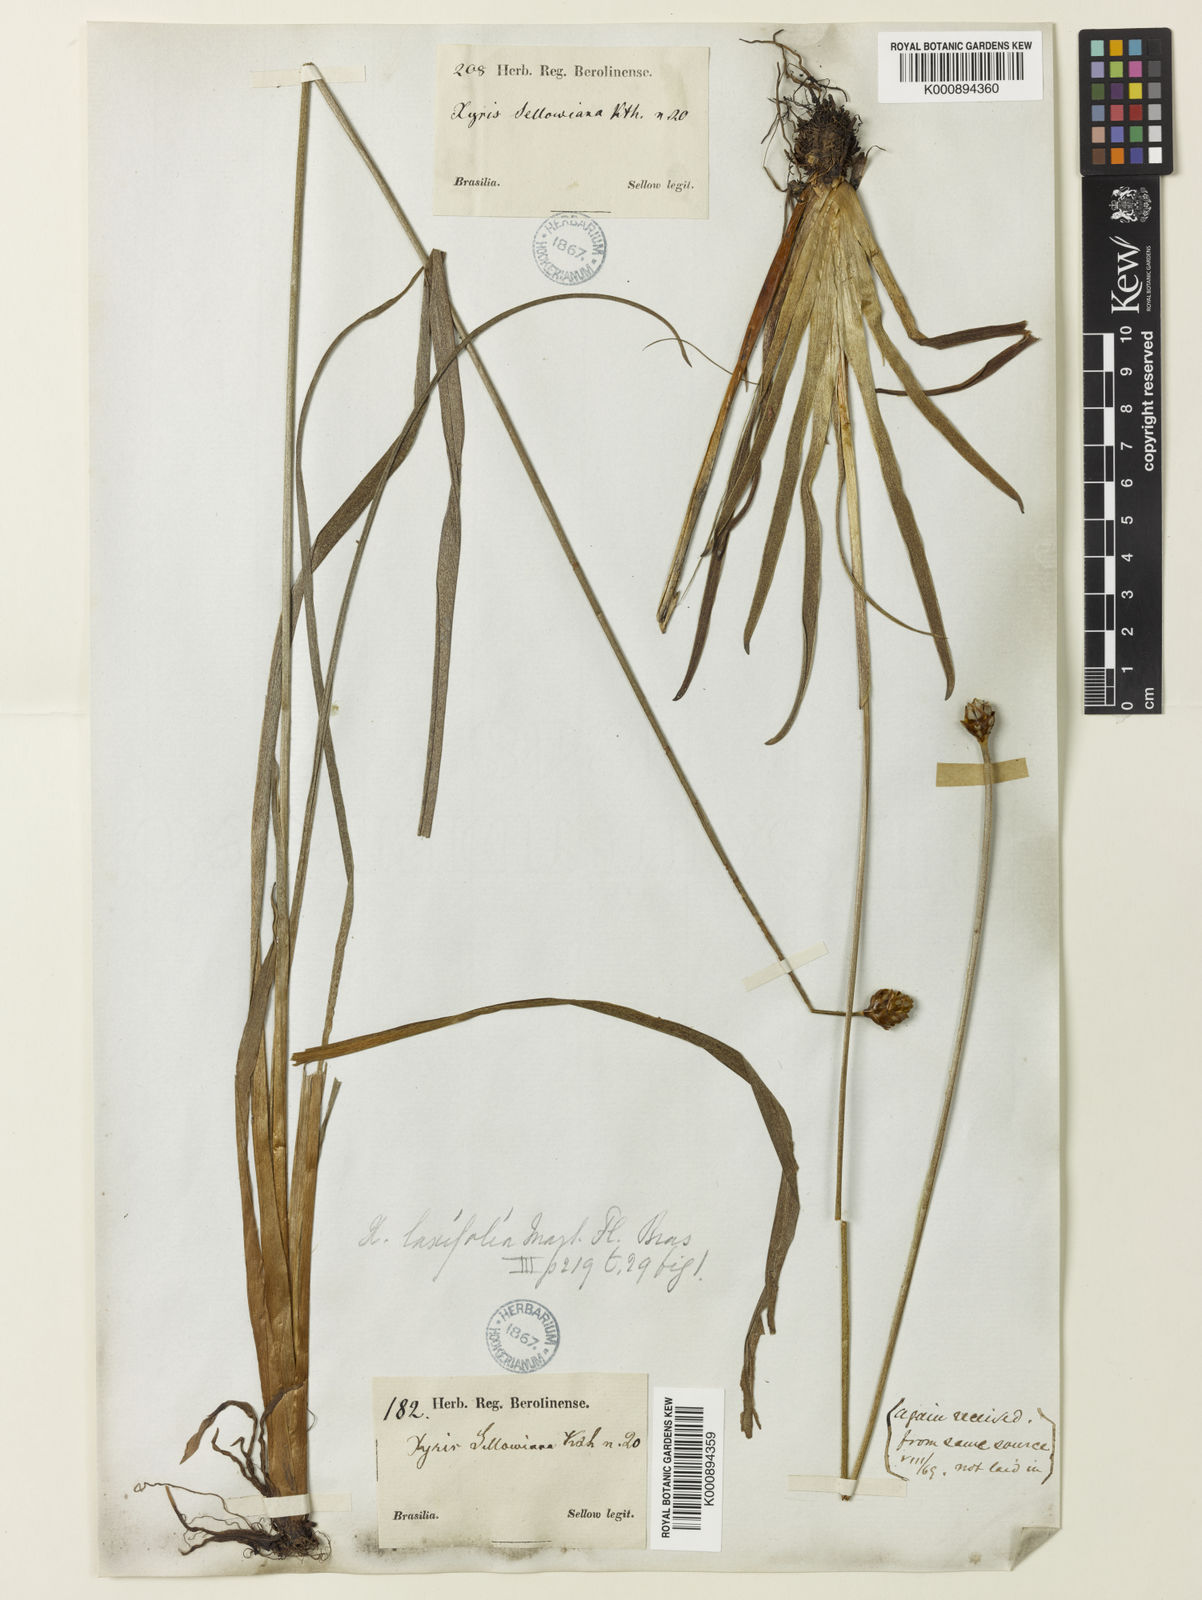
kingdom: Plantae
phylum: Tracheophyta
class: Liliopsida
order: Poales
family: Xyridaceae
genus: Xyris
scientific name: Xyris jupicai
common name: Richard's yelloweyed grass
